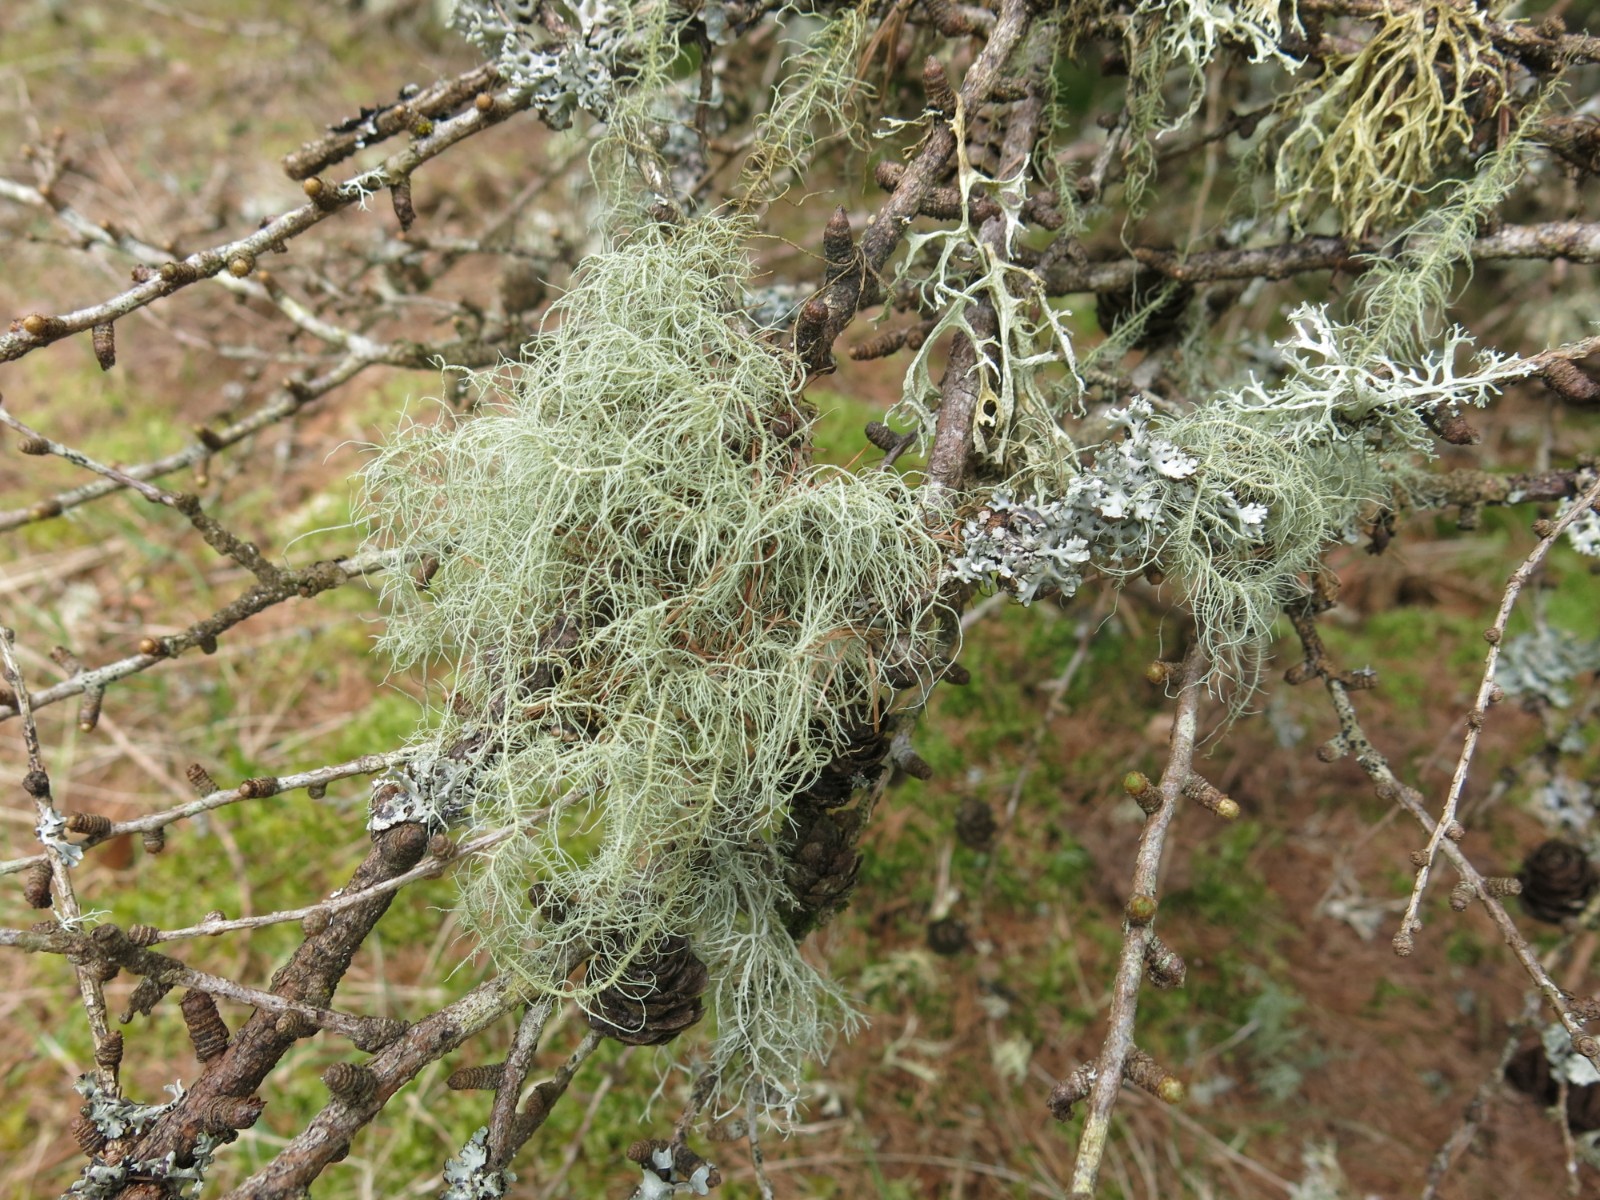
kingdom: Fungi
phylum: Ascomycota
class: Lecanoromycetes
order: Lecanorales
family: Parmeliaceae
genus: Usnea
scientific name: Usnea dasypoga
